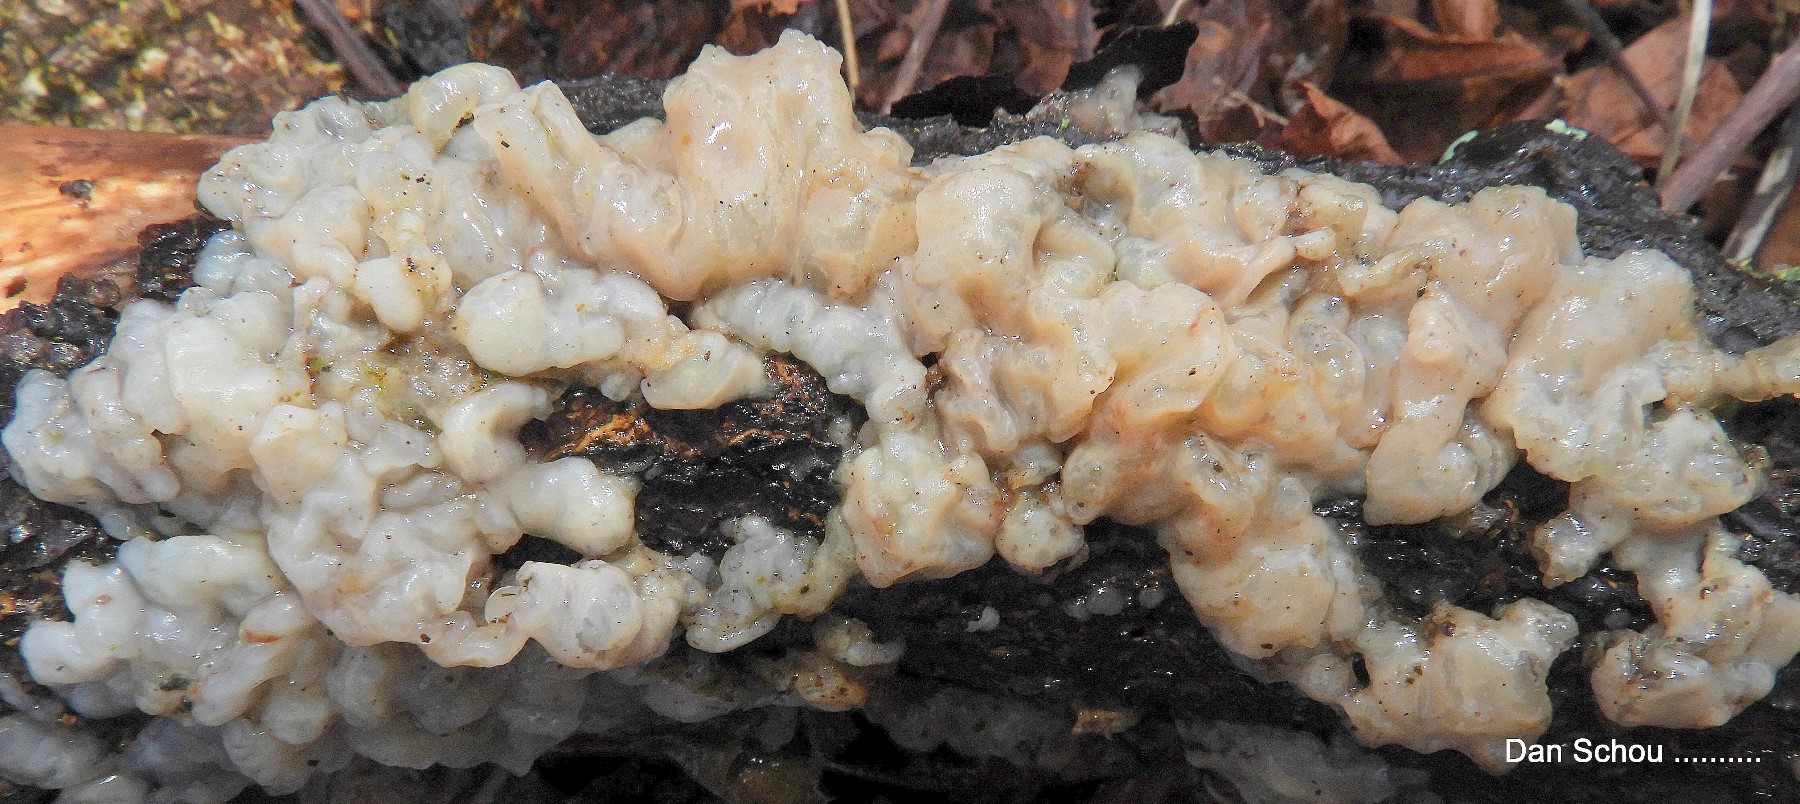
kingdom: Fungi
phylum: Basidiomycota
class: Agaricomycetes
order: Auriculariales
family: Hyaloriaceae
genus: Myxarium
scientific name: Myxarium nucleatum
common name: klar bævretop
